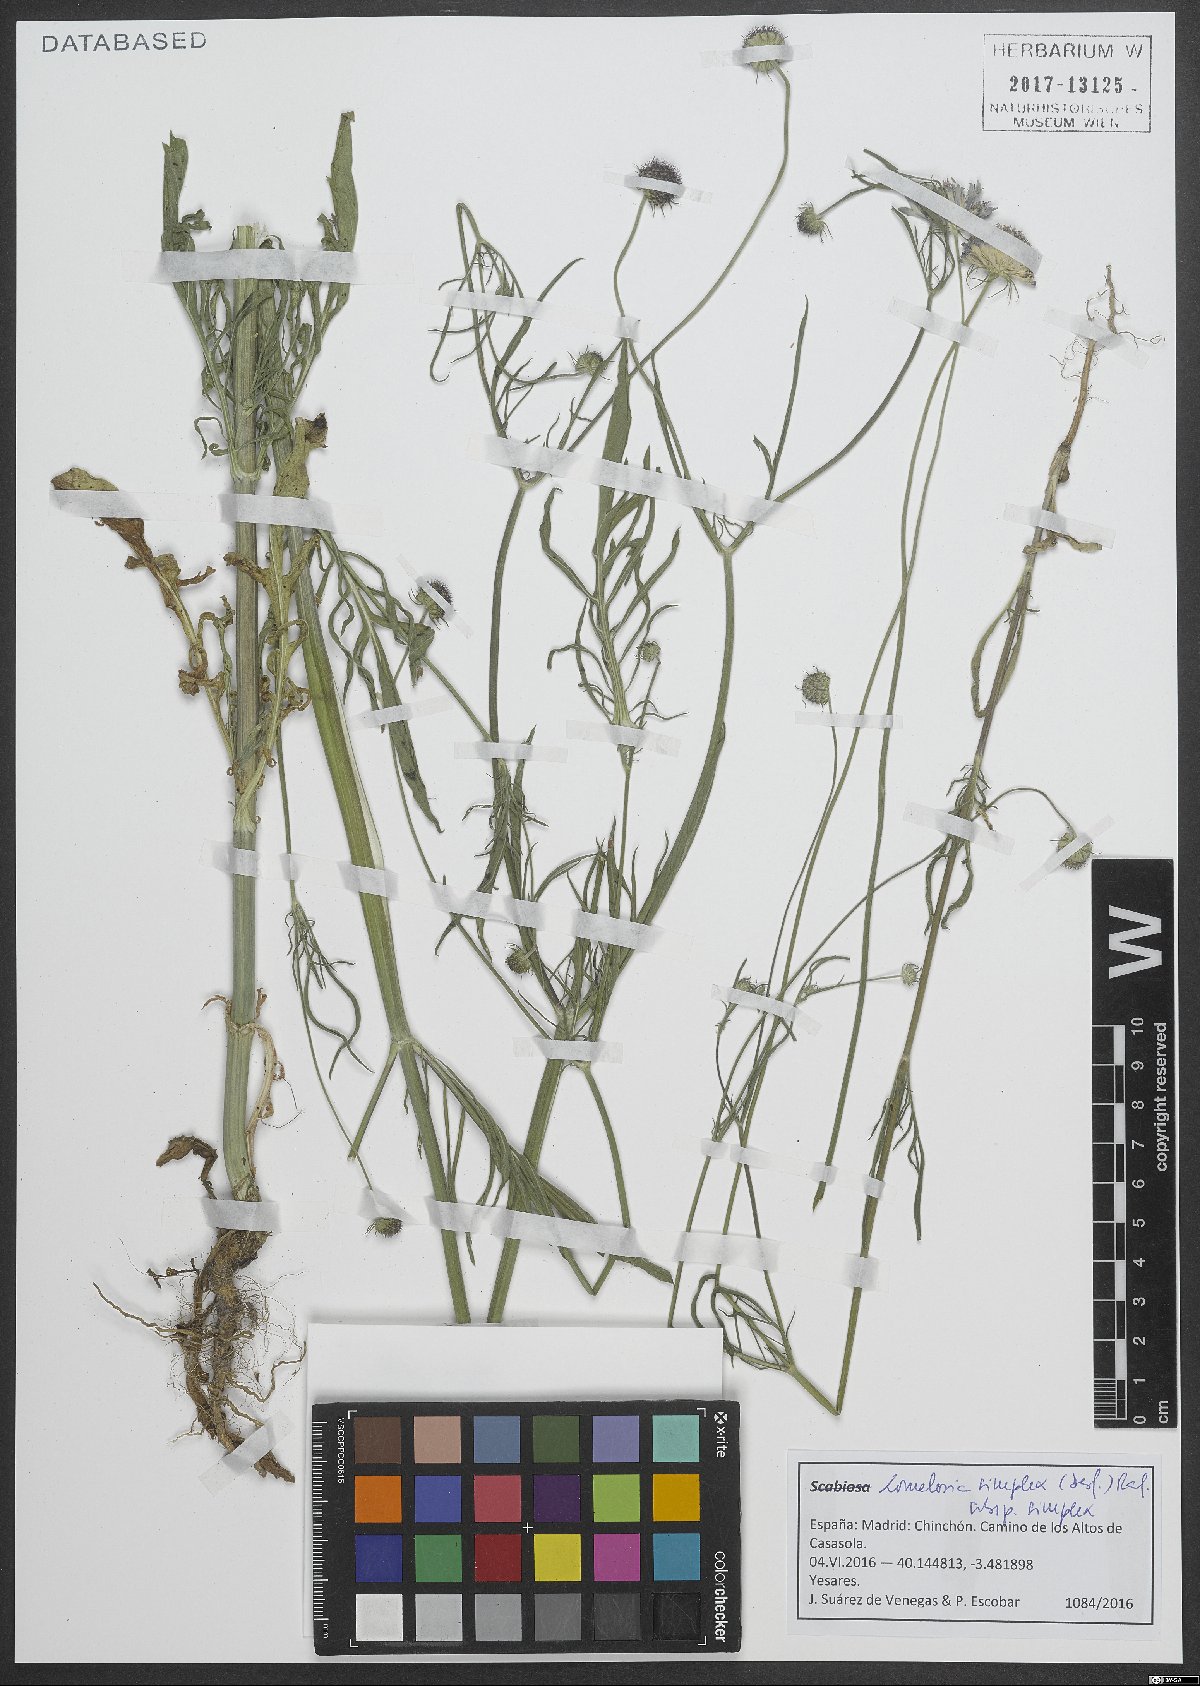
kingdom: Plantae
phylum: Tracheophyta
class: Magnoliopsida
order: Dipsacales
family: Caprifoliaceae
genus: Lomelosia
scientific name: Lomelosia simplex
